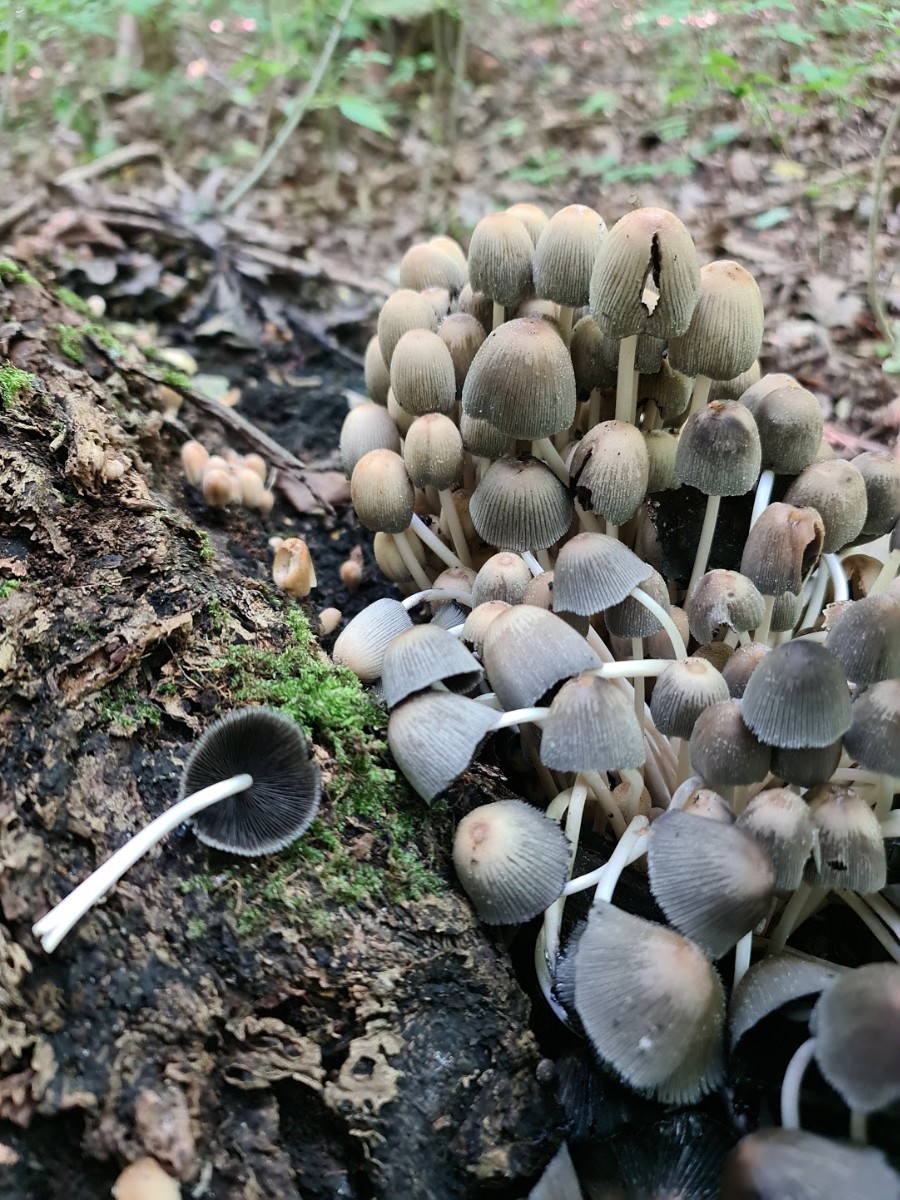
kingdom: Fungi
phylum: Basidiomycota
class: Agaricomycetes
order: Agaricales
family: Psathyrellaceae
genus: Coprinellus
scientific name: Coprinellus micaceus
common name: glimmer-blækhat
